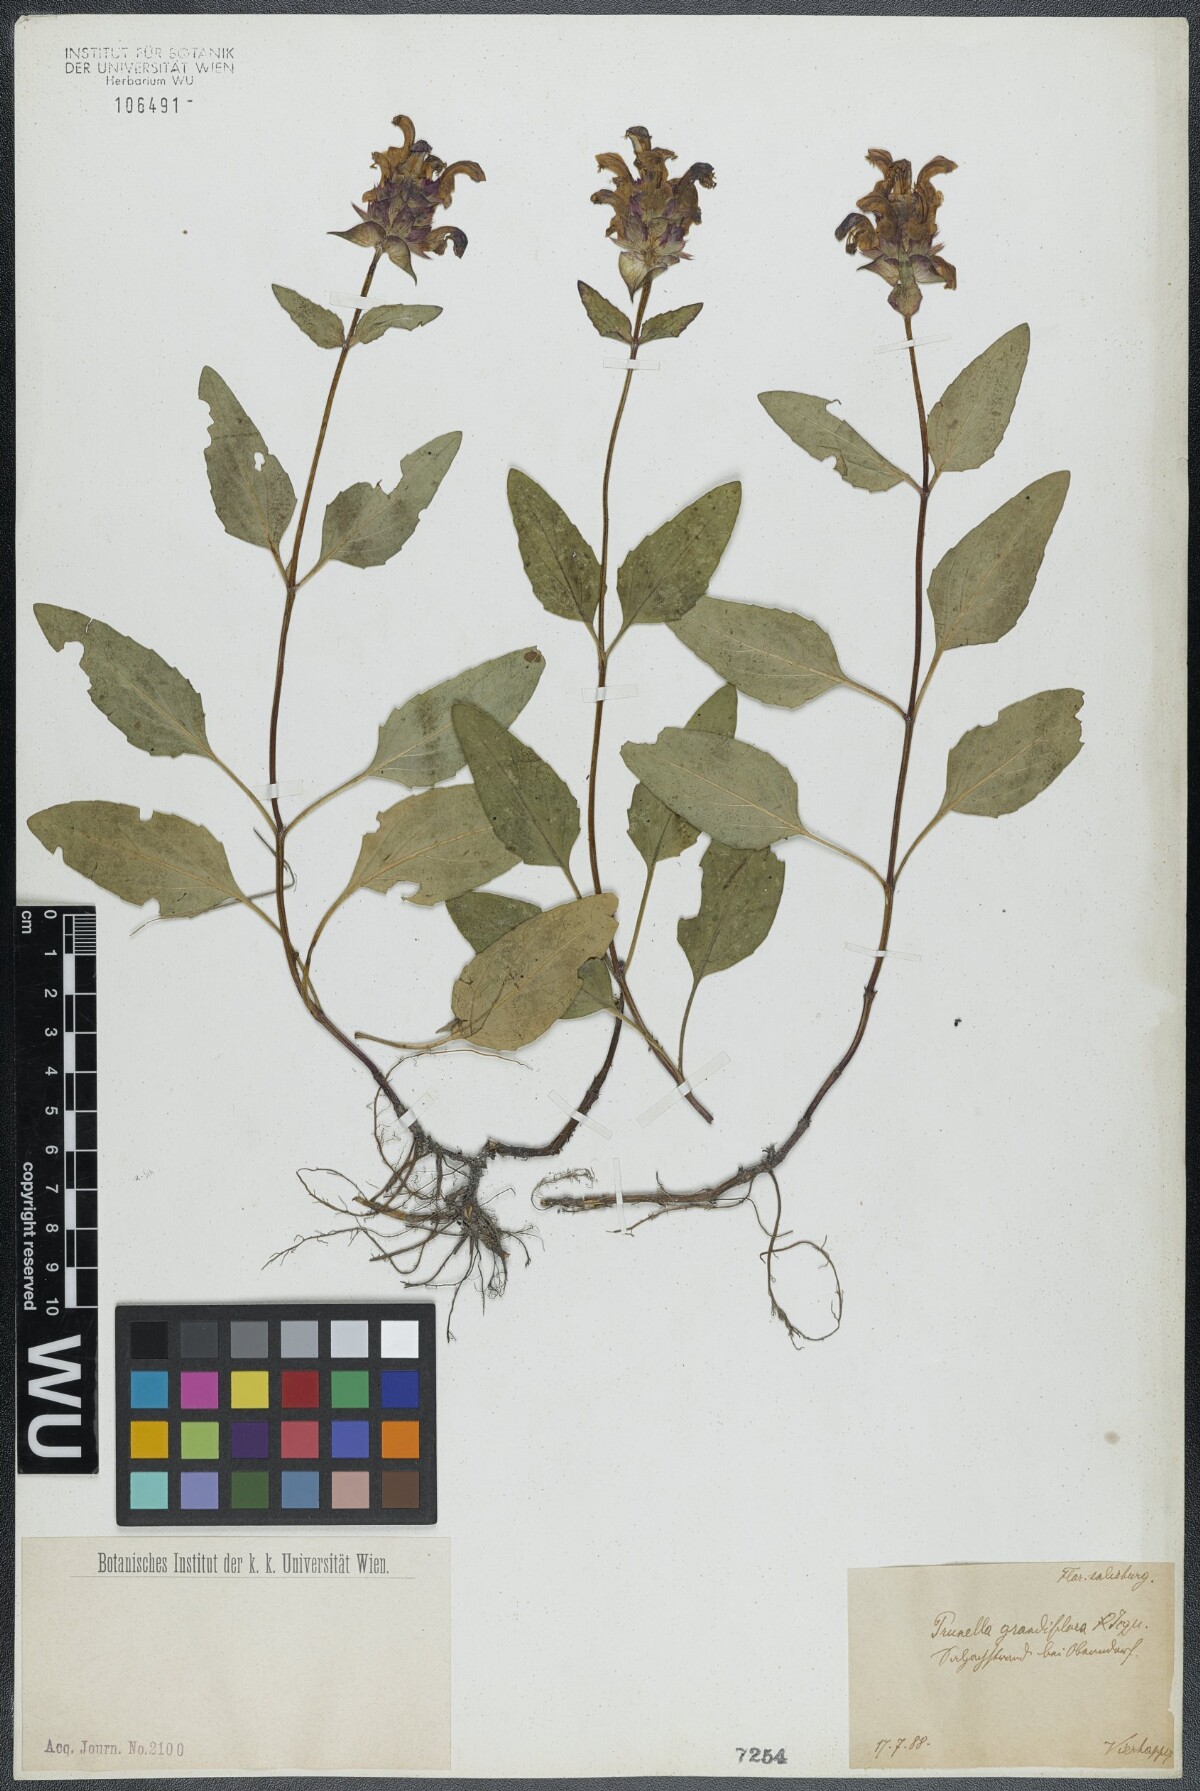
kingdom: Plantae
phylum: Tracheophyta
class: Magnoliopsida
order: Lamiales
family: Lamiaceae
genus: Prunella
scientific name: Prunella grandiflora
